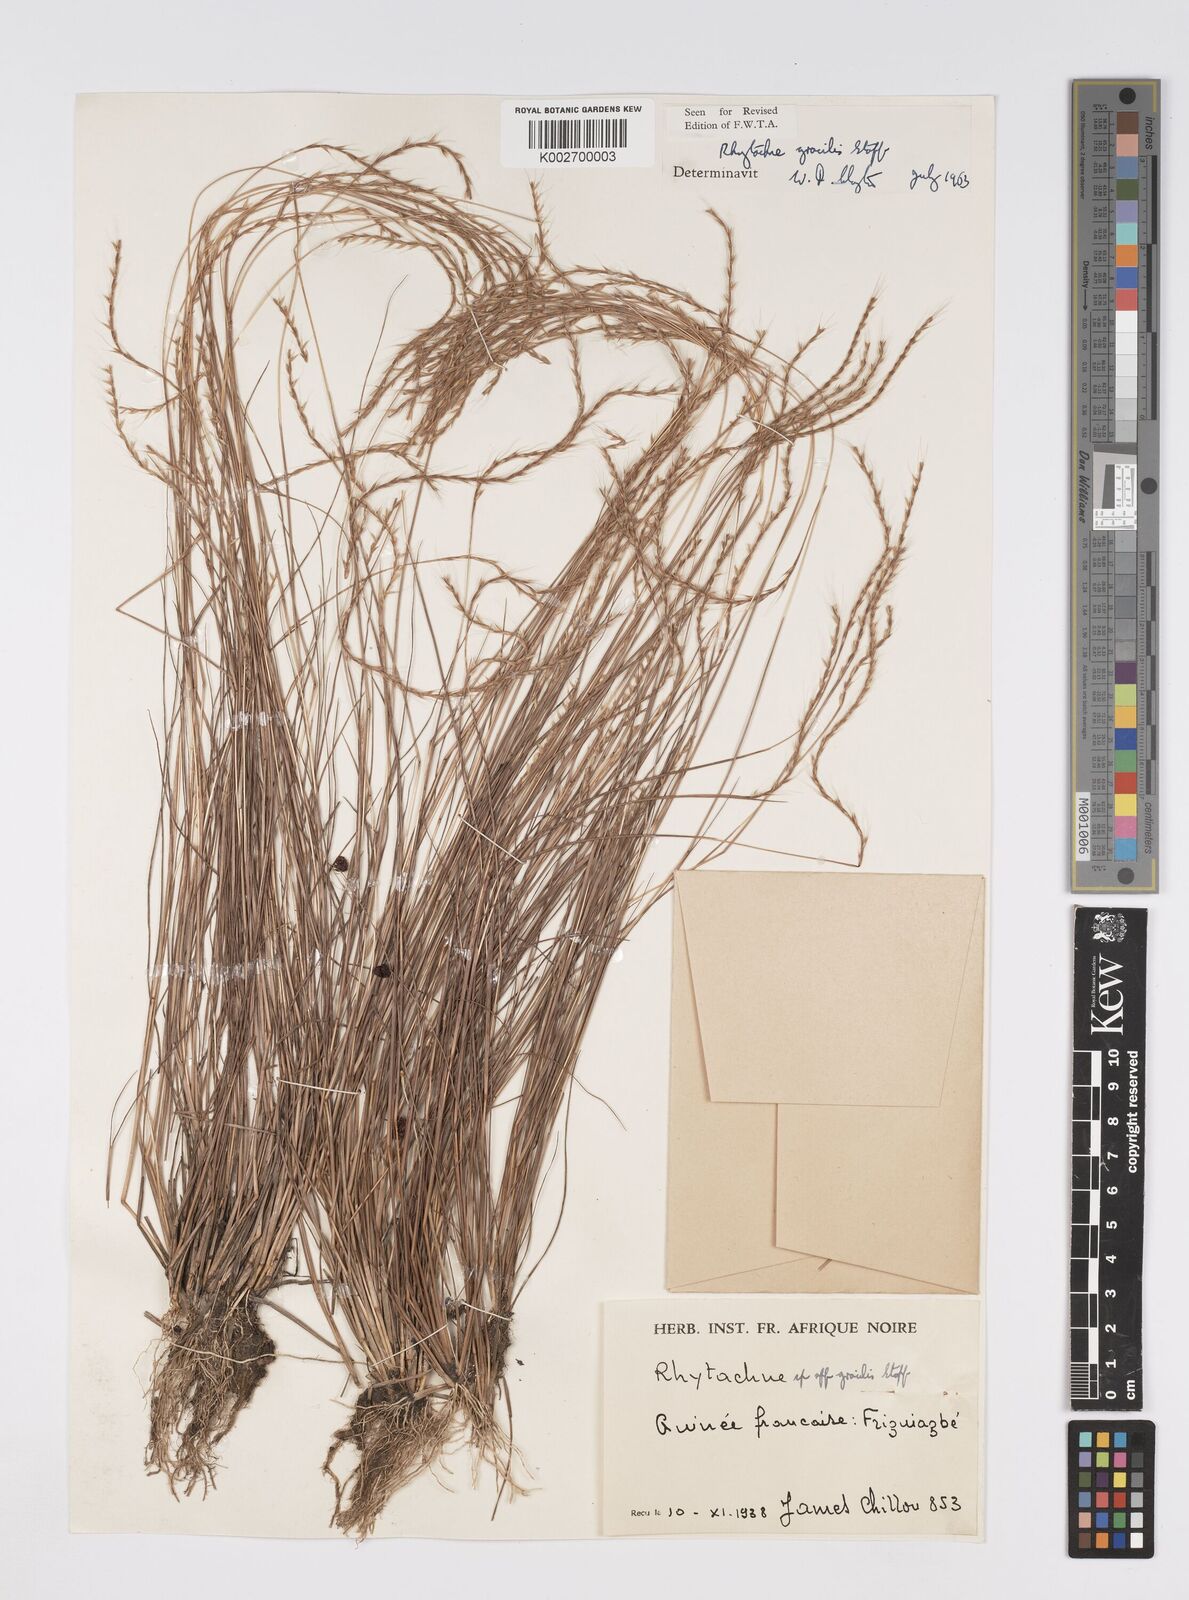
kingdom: Plantae
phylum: Tracheophyta
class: Liliopsida
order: Poales
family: Poaceae
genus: Rhytachne
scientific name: Rhytachne gracilis
